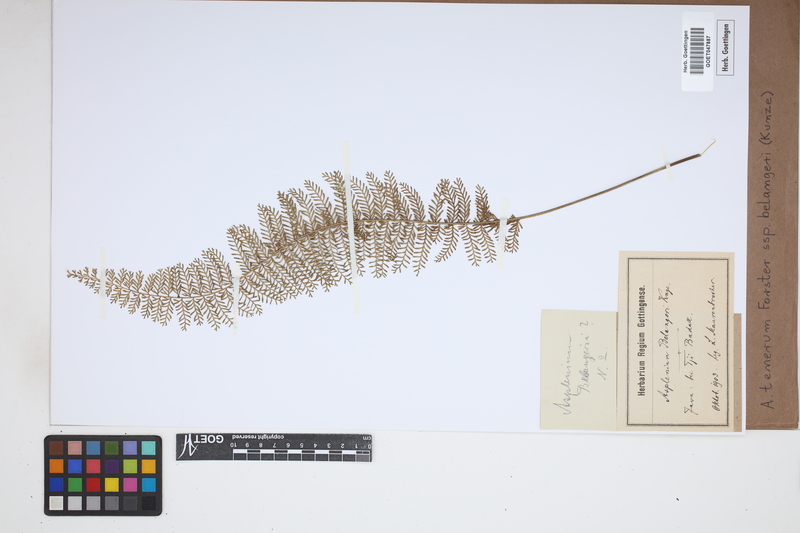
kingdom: Plantae
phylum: Tracheophyta
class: Polypodiopsida
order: Polypodiales
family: Aspleniaceae
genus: Asplenium
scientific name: Asplenium tenerum
